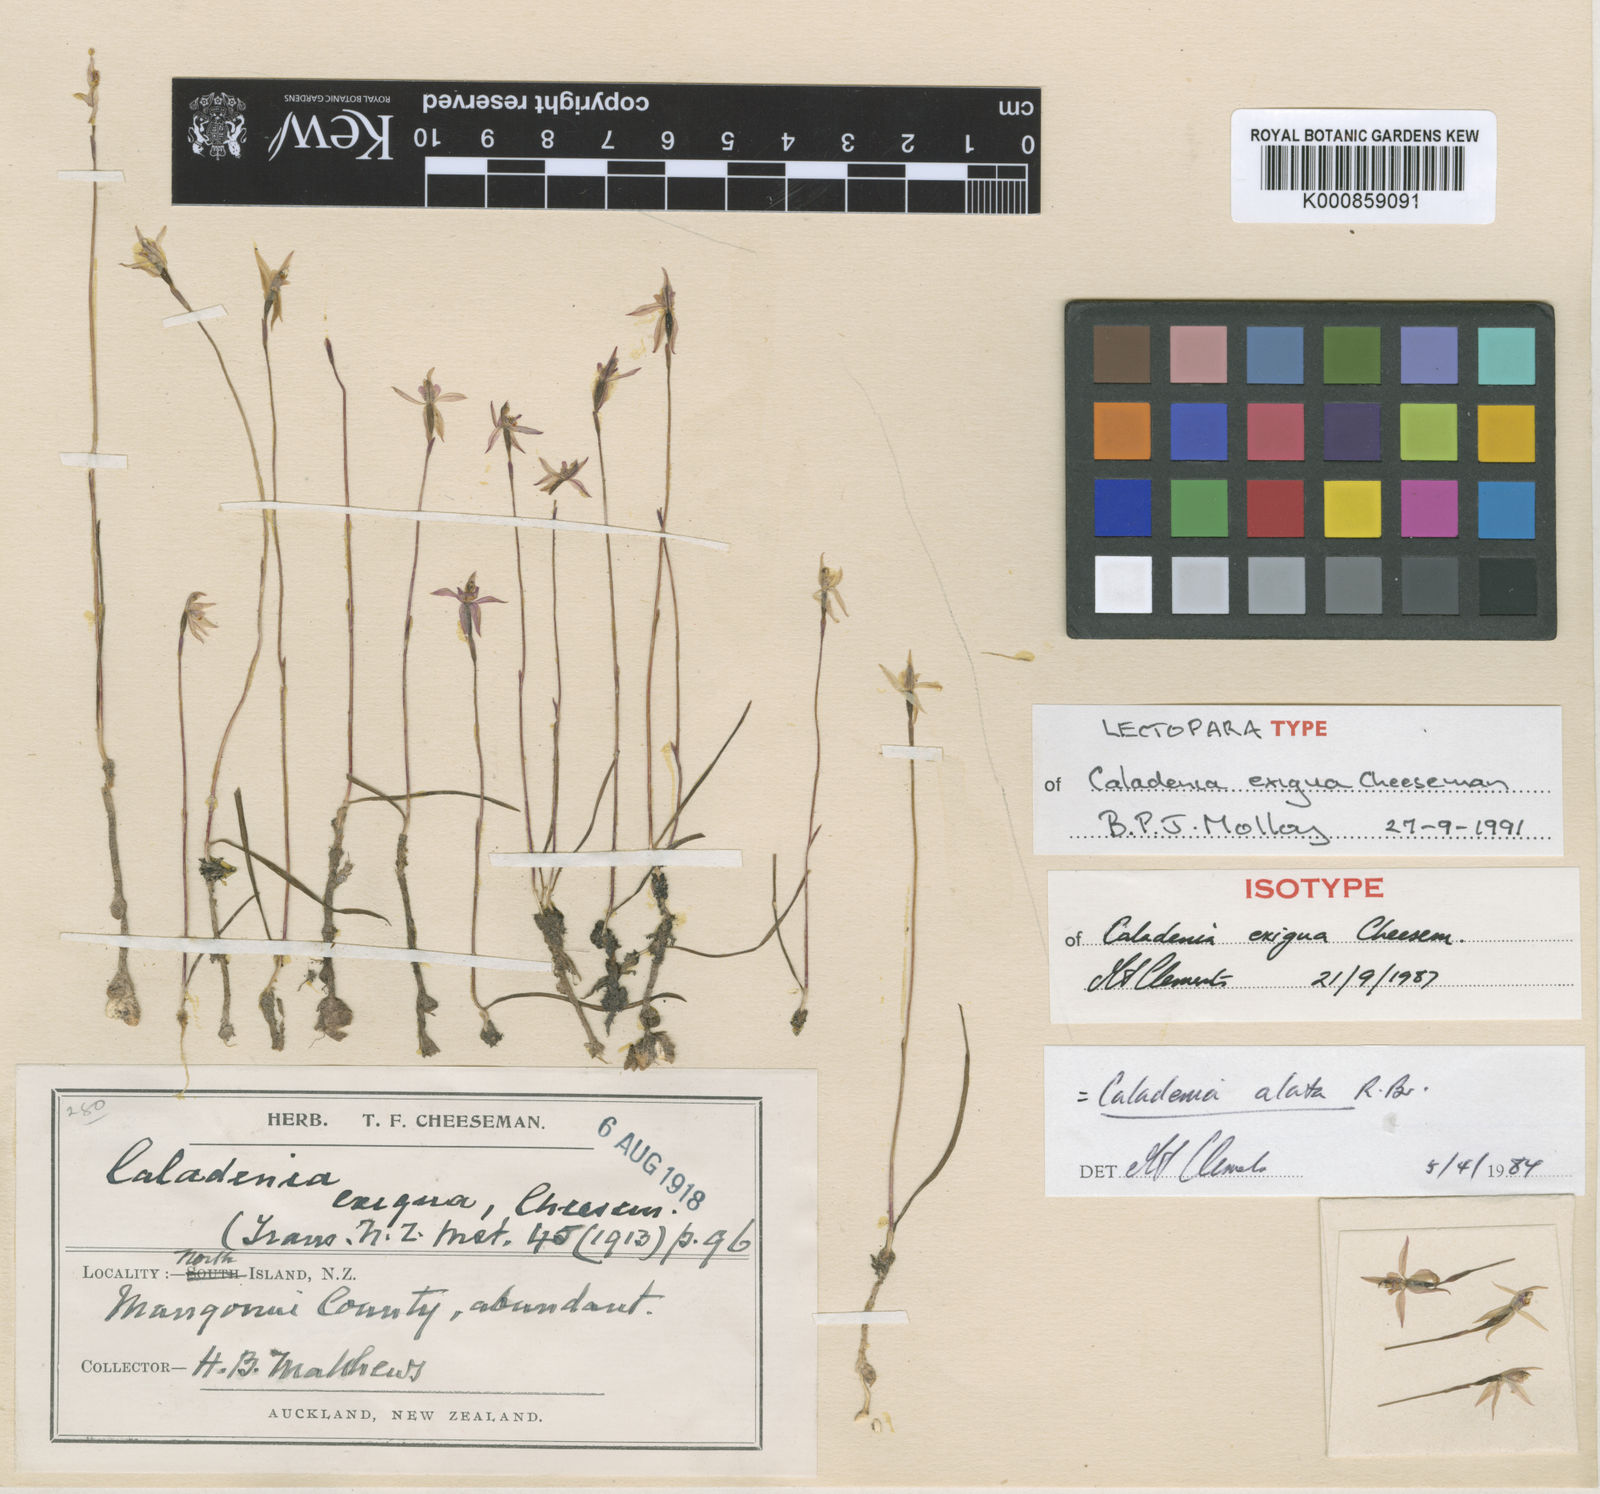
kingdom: Plantae
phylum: Tracheophyta
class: Liliopsida
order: Asparagales
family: Orchidaceae
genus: Caladenia
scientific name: Caladenia alata
